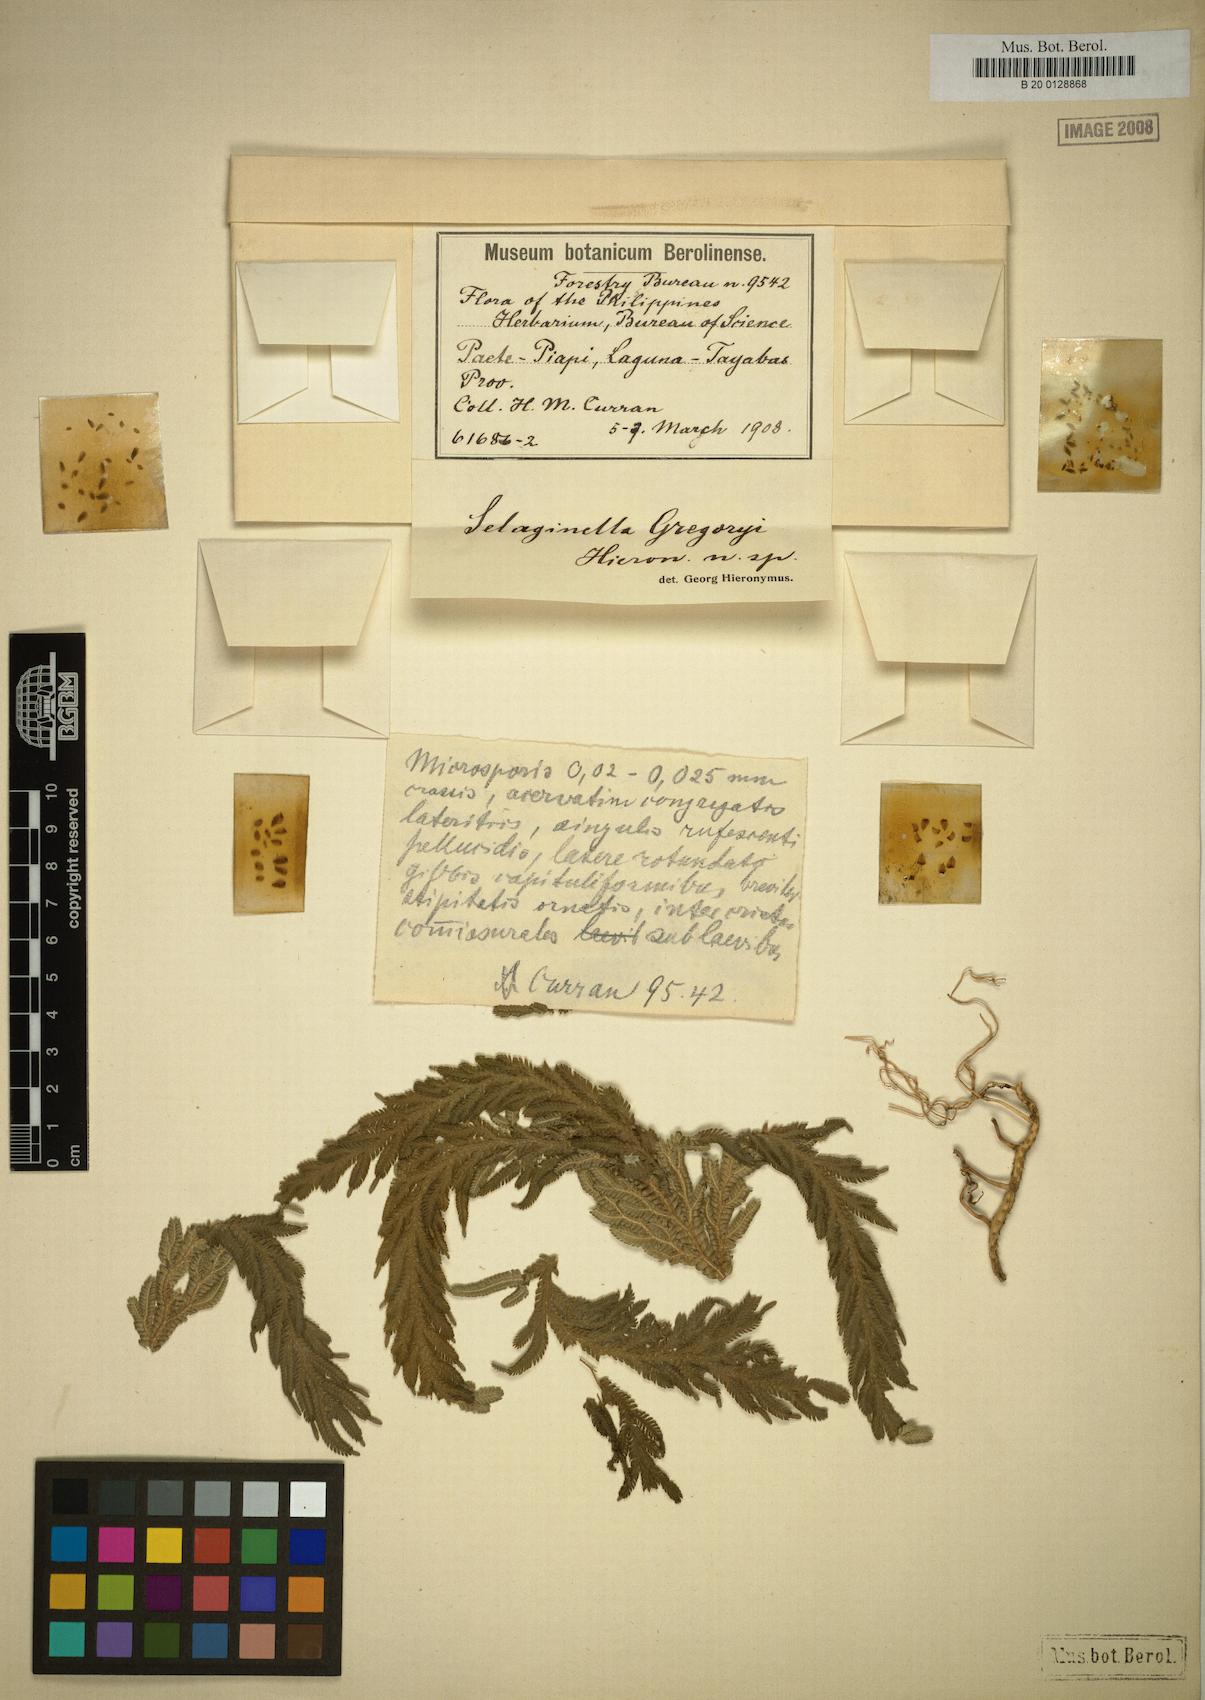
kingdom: Plantae
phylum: Tracheophyta
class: Lycopodiopsida
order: Selaginellales
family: Selaginellaceae
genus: Selaginella
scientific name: Selaginella fenixii
